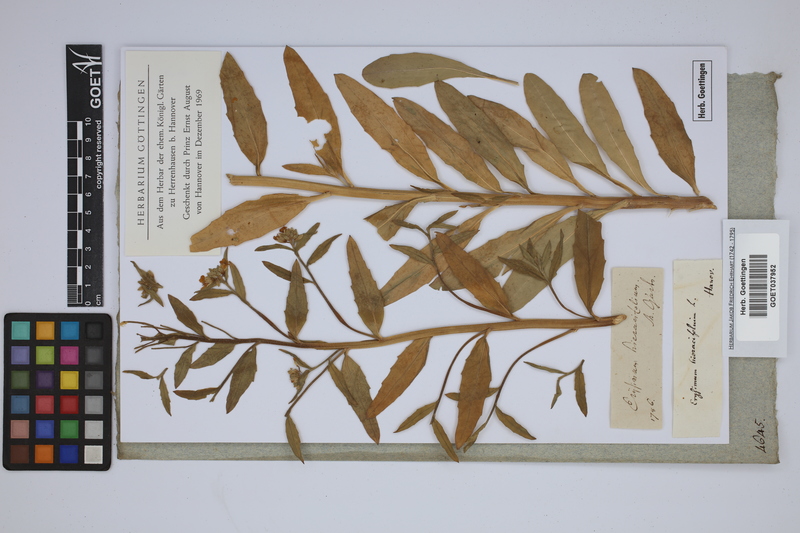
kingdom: Plantae
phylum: Tracheophyta
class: Magnoliopsida
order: Brassicales
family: Brassicaceae
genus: Erysimum
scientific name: Erysimum hieraciifolium
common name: European wallflower
